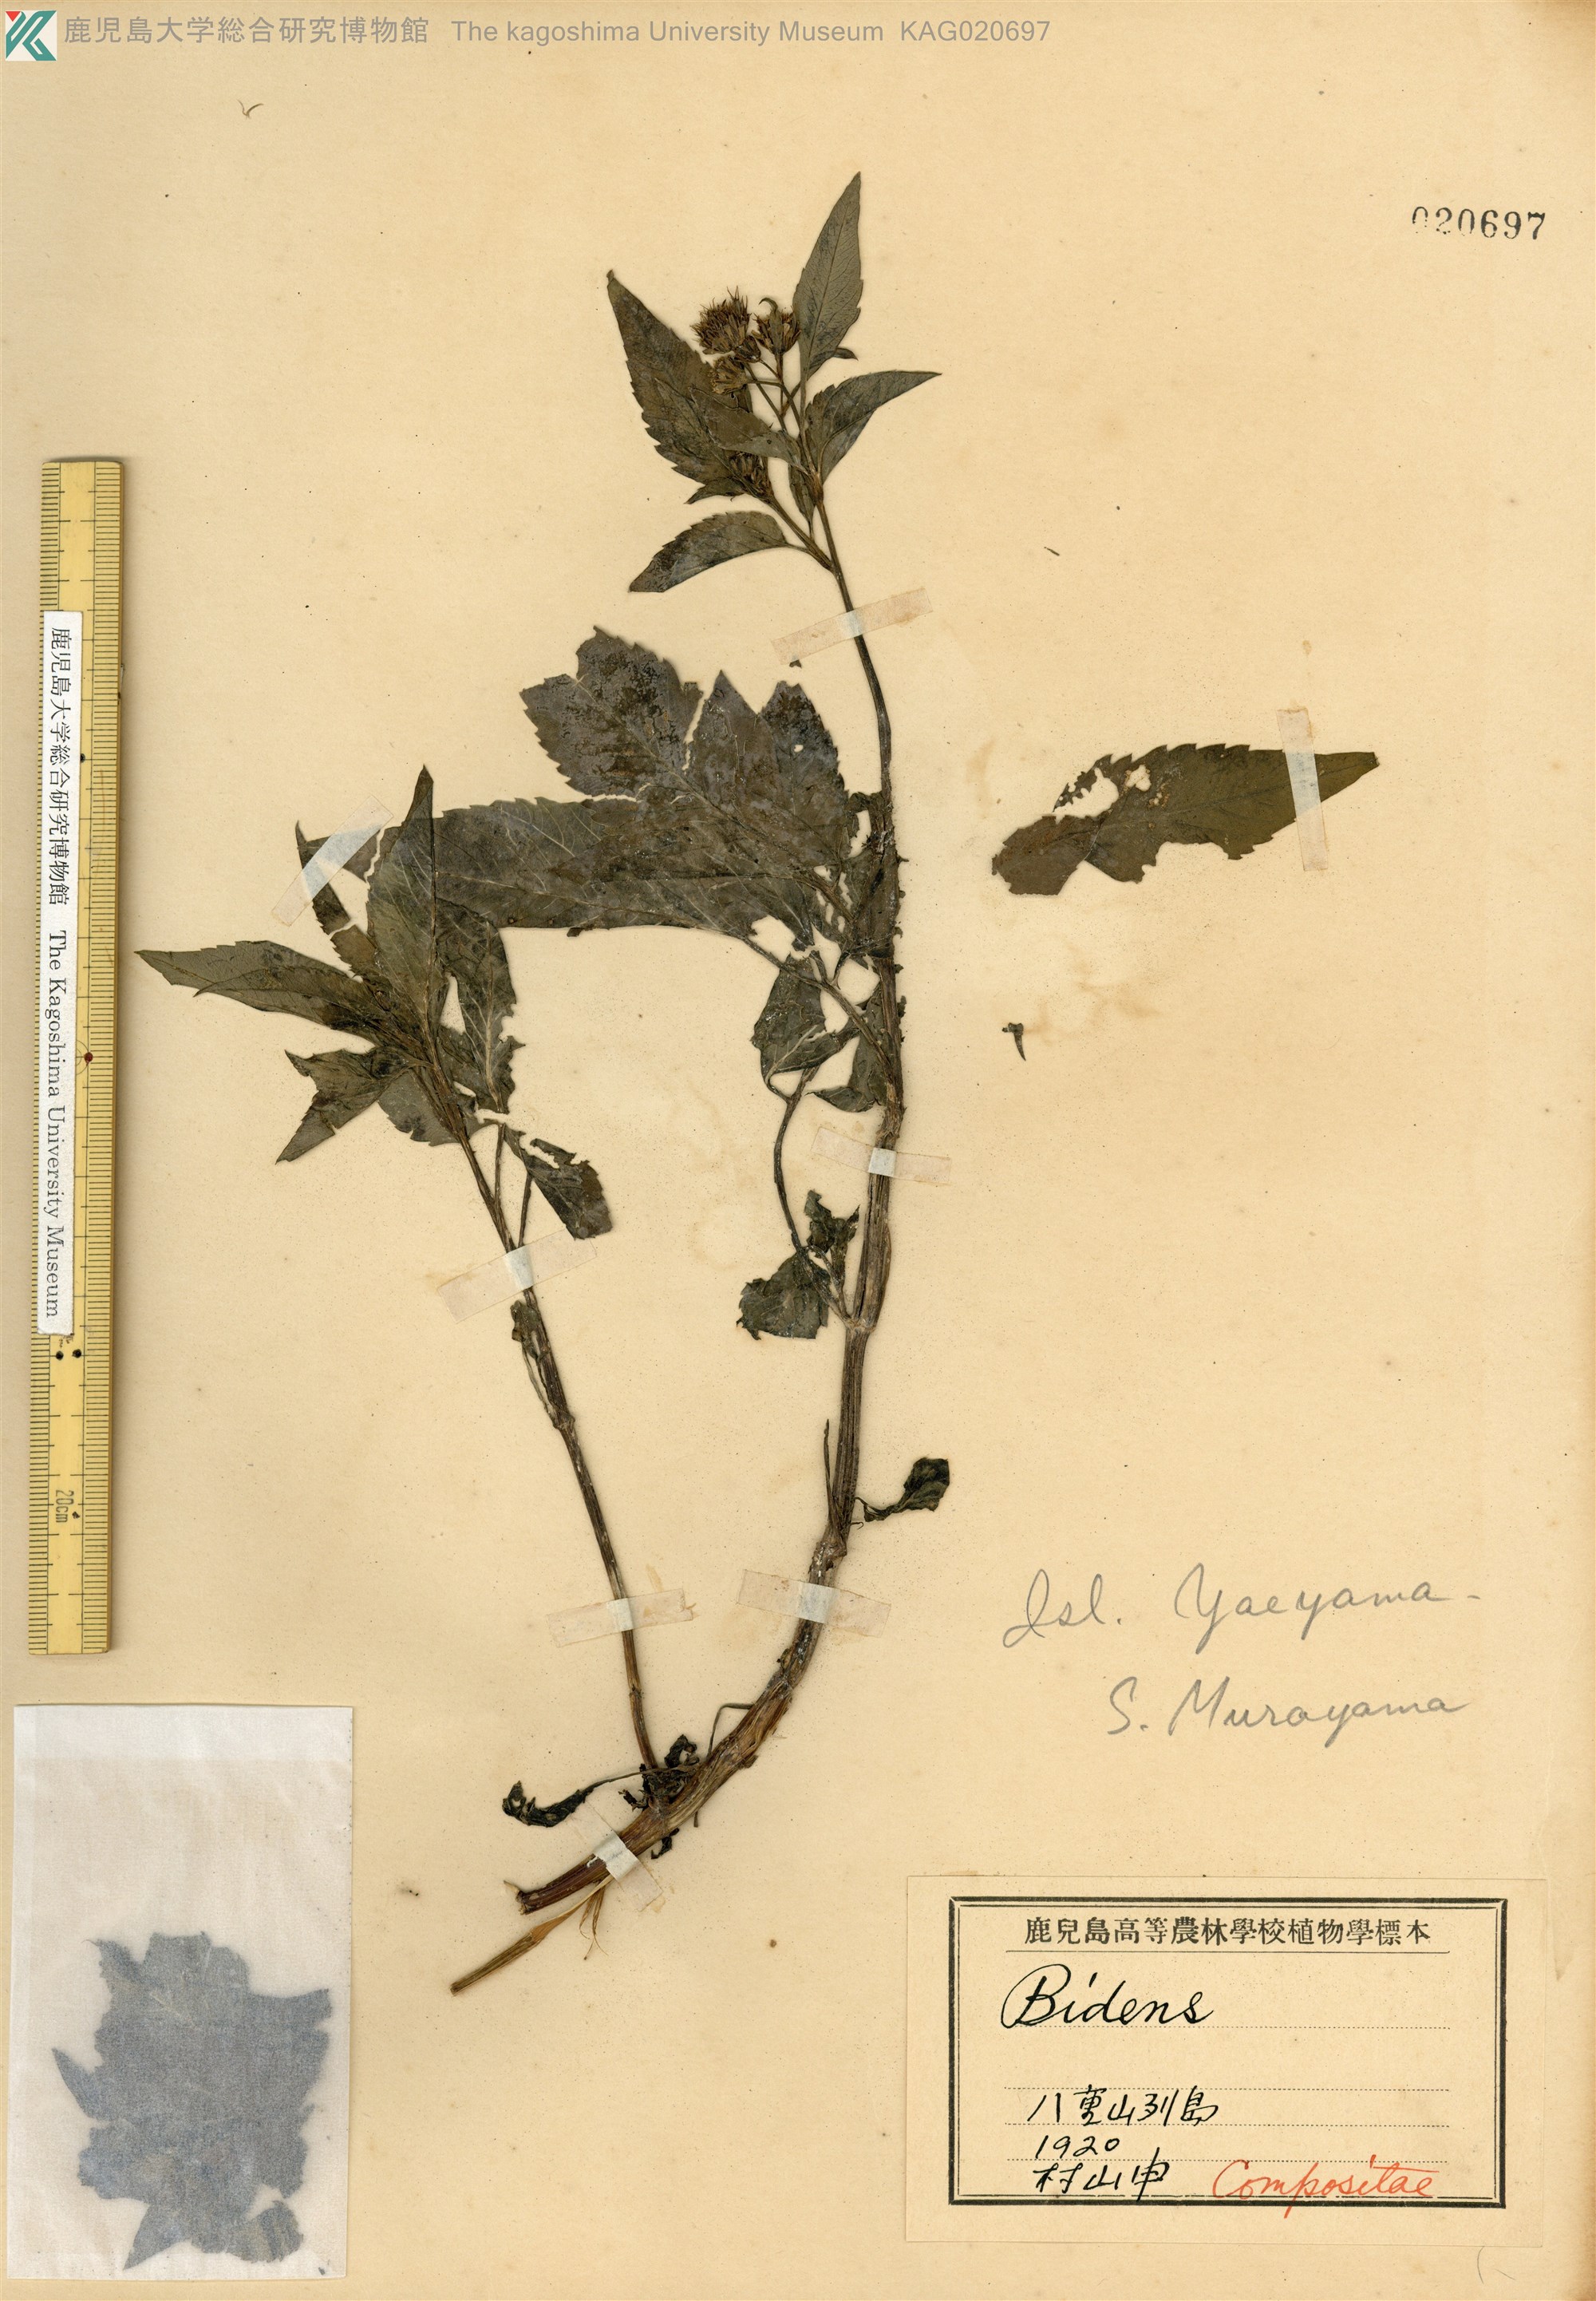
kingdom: Plantae
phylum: Tracheophyta
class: Magnoliopsida
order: Asterales
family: Asteraceae
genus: Bidens
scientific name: Bidens pilosa
